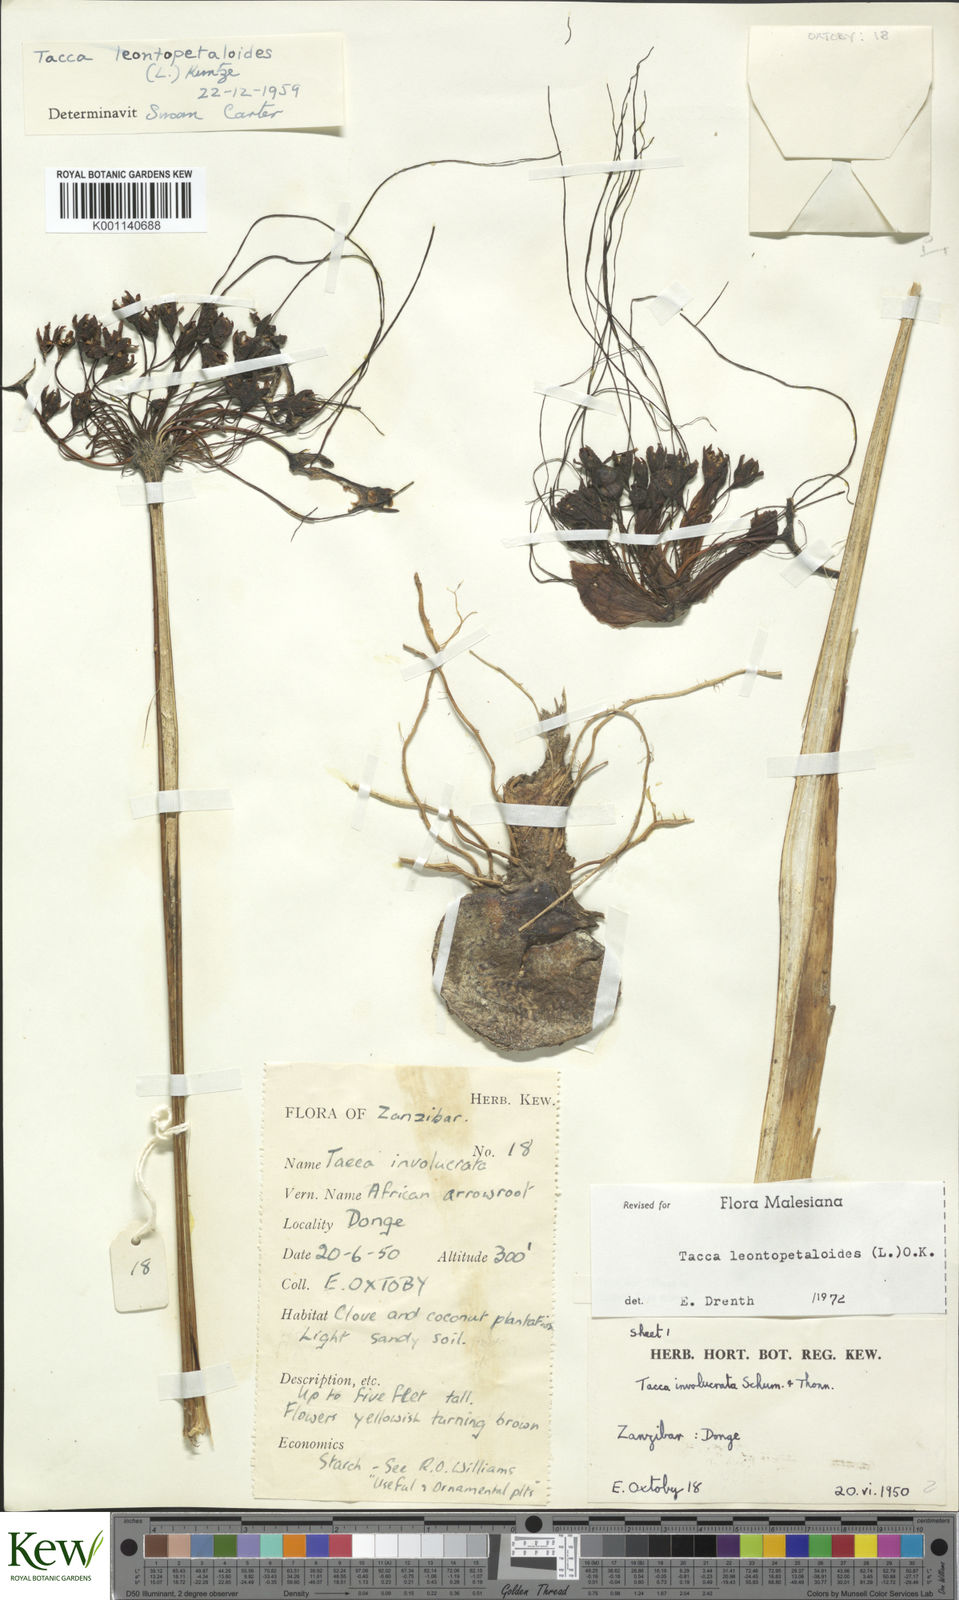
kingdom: Plantae
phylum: Tracheophyta
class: Liliopsida
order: Dioscoreales
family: Dioscoreaceae
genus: Tacca
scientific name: Tacca leontopetaloides
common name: Arrowroot
